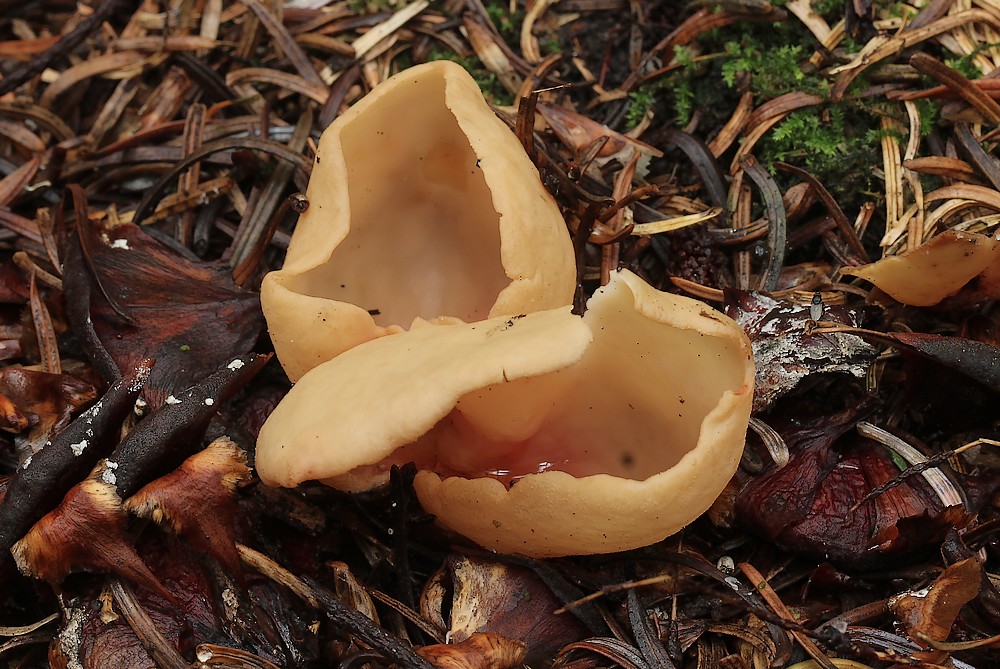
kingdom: Fungi
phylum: Ascomycota
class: Pezizomycetes
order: Pezizales
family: Otideaceae
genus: Otidea
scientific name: Otidea onotica
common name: æsel-ørebæger
